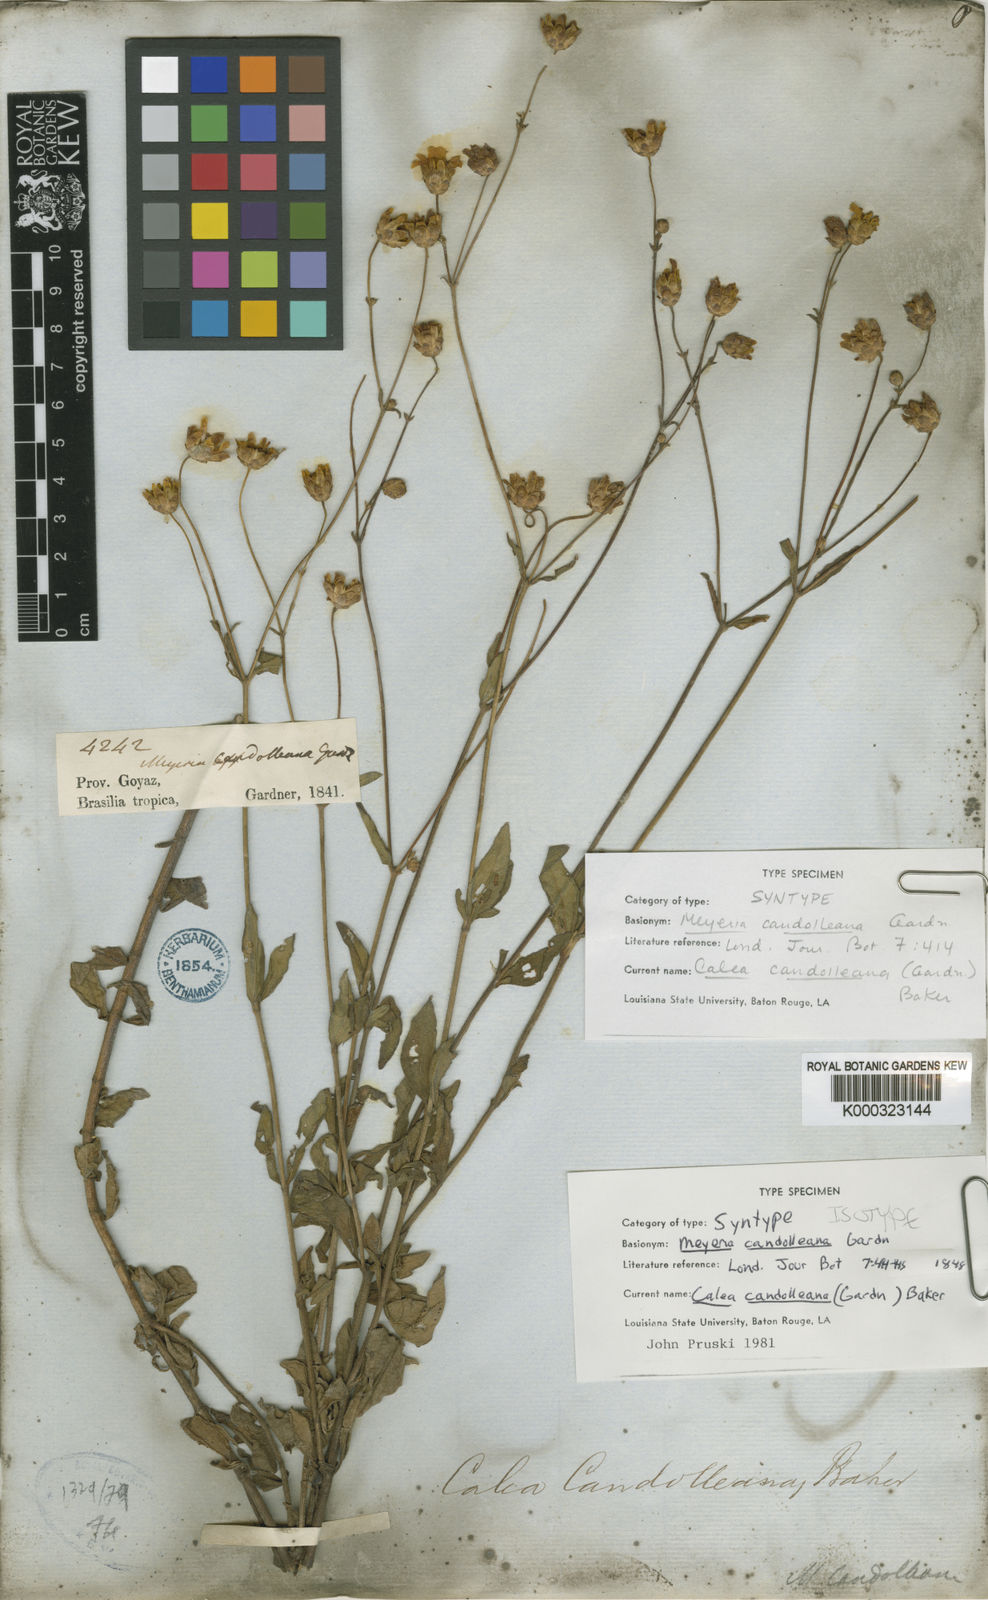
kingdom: Plantae
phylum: Tracheophyta
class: Magnoliopsida
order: Asterales
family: Asteraceae
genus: Calea
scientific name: Calea candolleana
